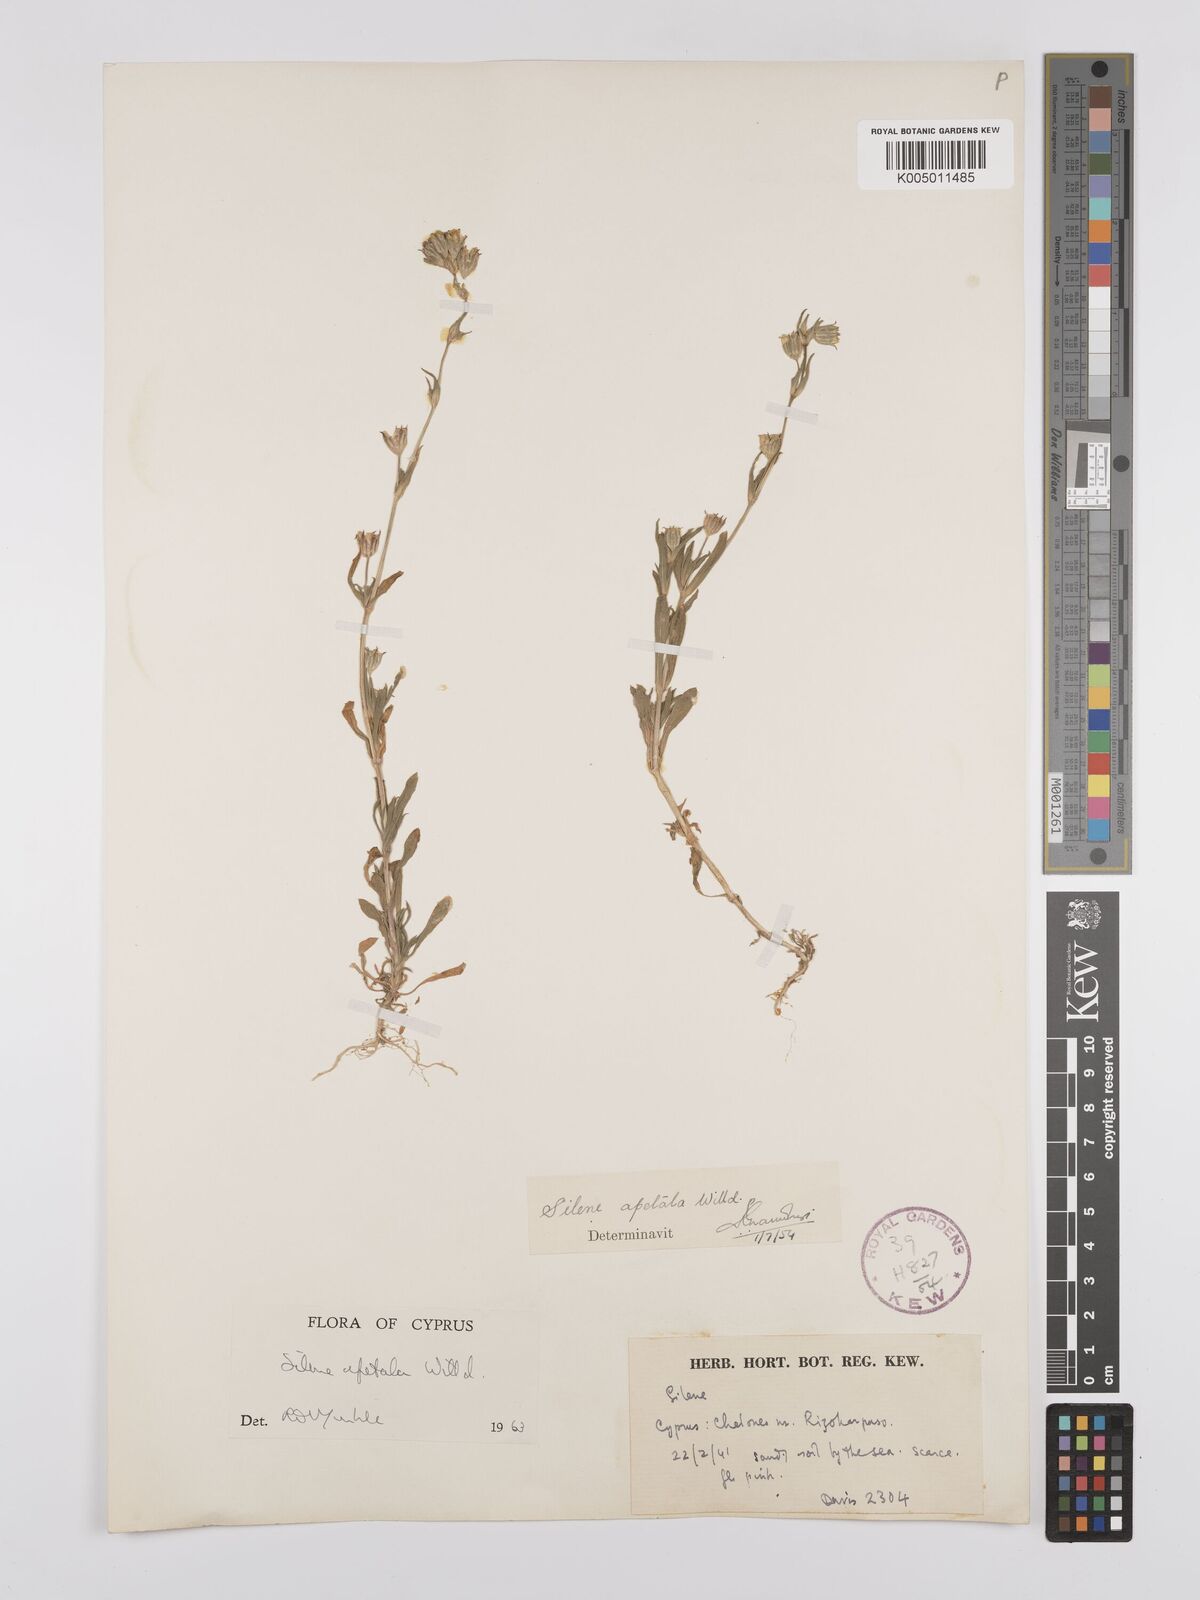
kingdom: Plantae
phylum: Tracheophyta
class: Magnoliopsida
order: Caryophyllales
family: Caryophyllaceae
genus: Silene
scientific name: Silene apetala
